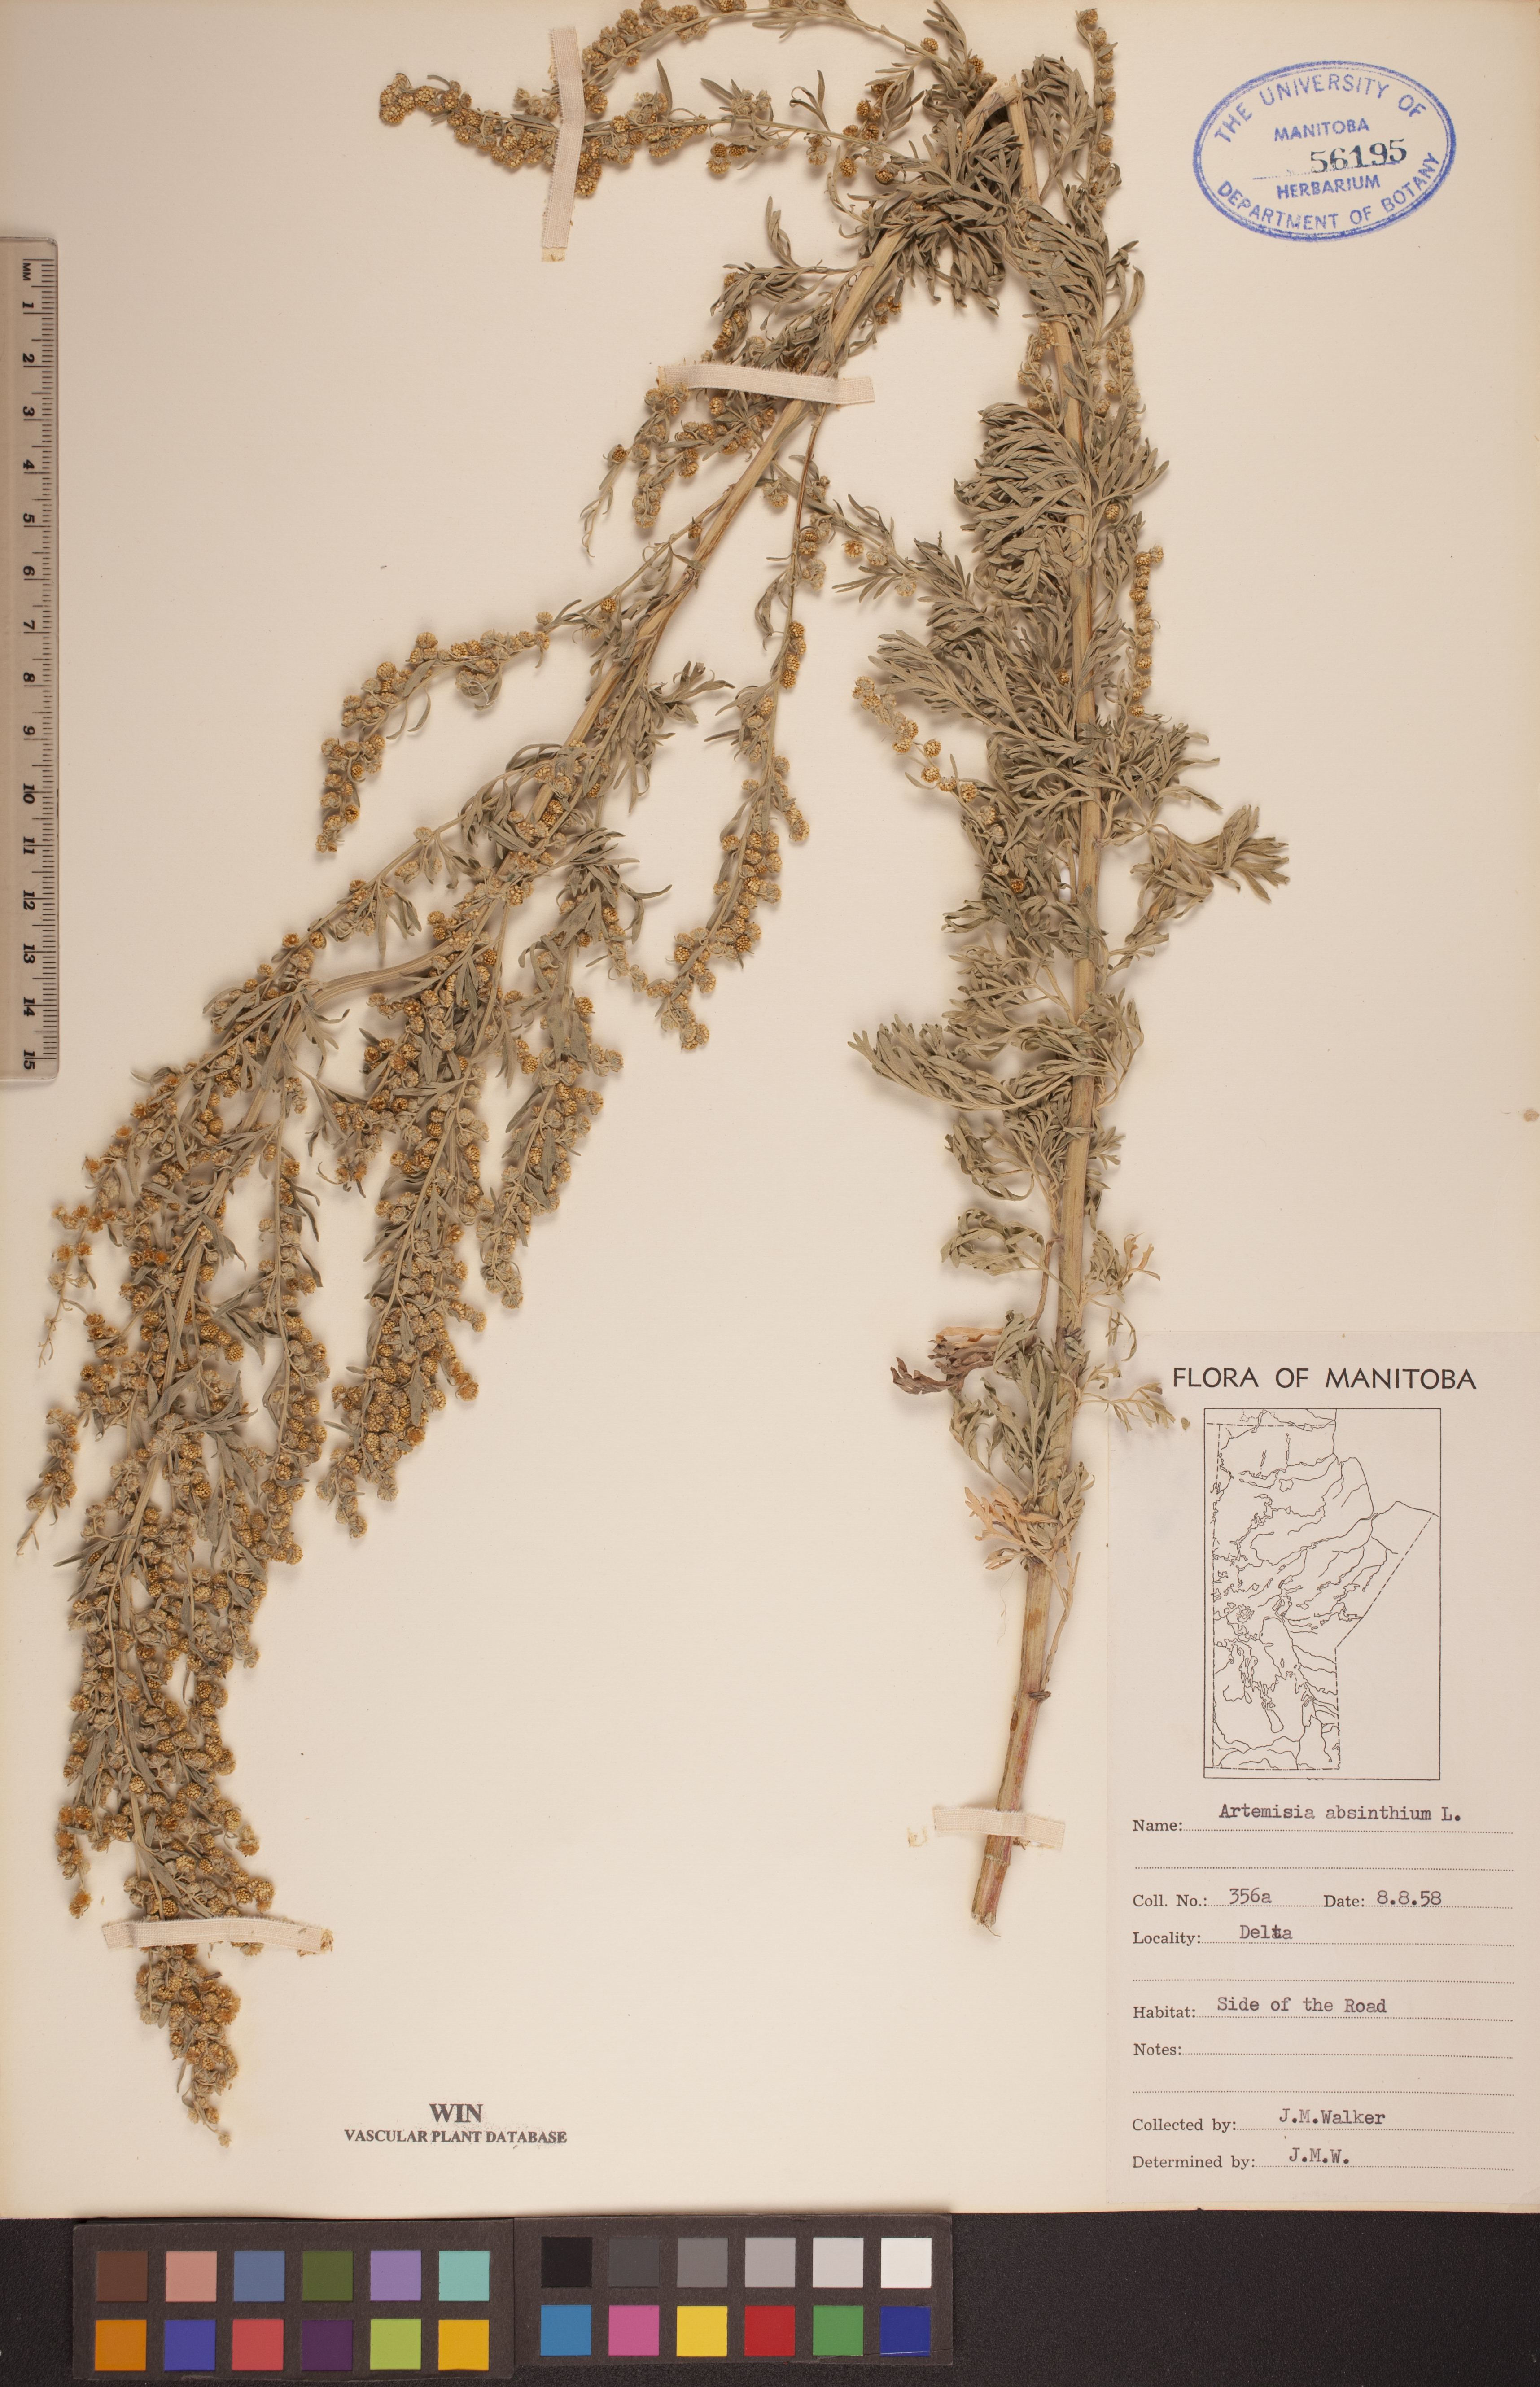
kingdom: Plantae
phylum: Tracheophyta
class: Magnoliopsida
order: Asterales
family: Asteraceae
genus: Artemisia
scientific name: Artemisia absinthium
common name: Wormwood
